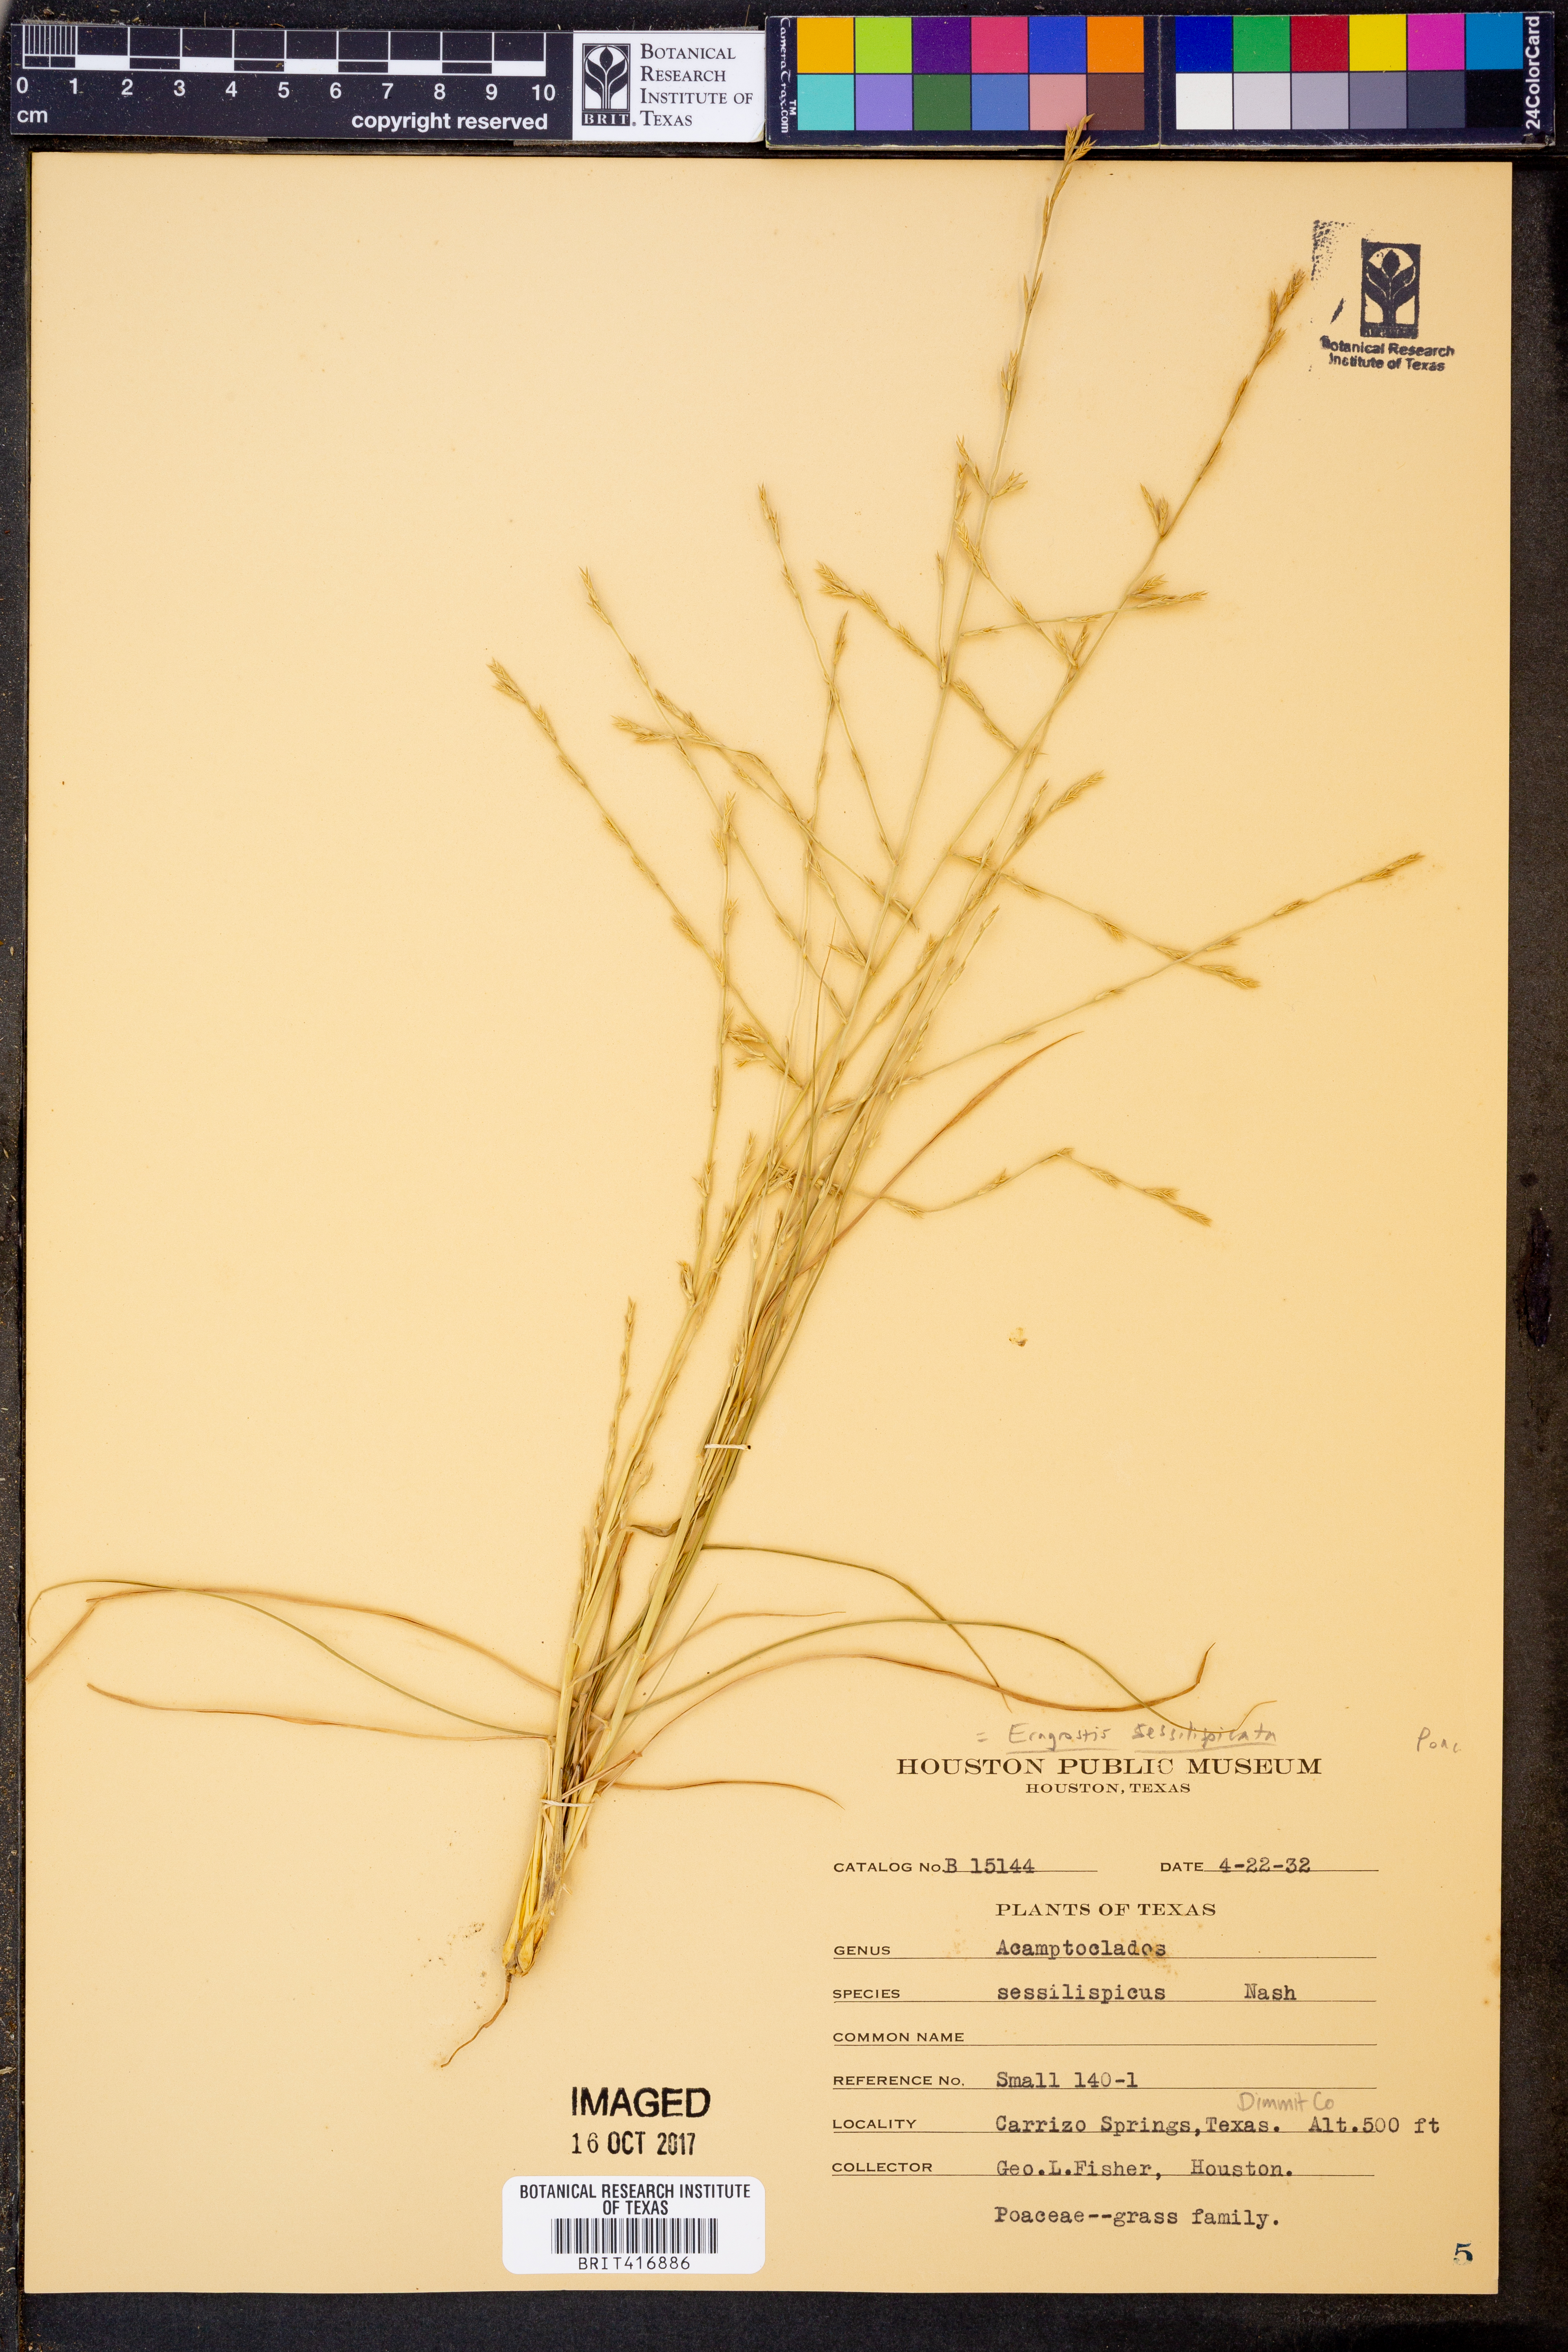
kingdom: Plantae
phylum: Tracheophyta
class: Liliopsida
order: Poales
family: Poaceae
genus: Eragrostis
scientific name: Eragrostis sessilispica
